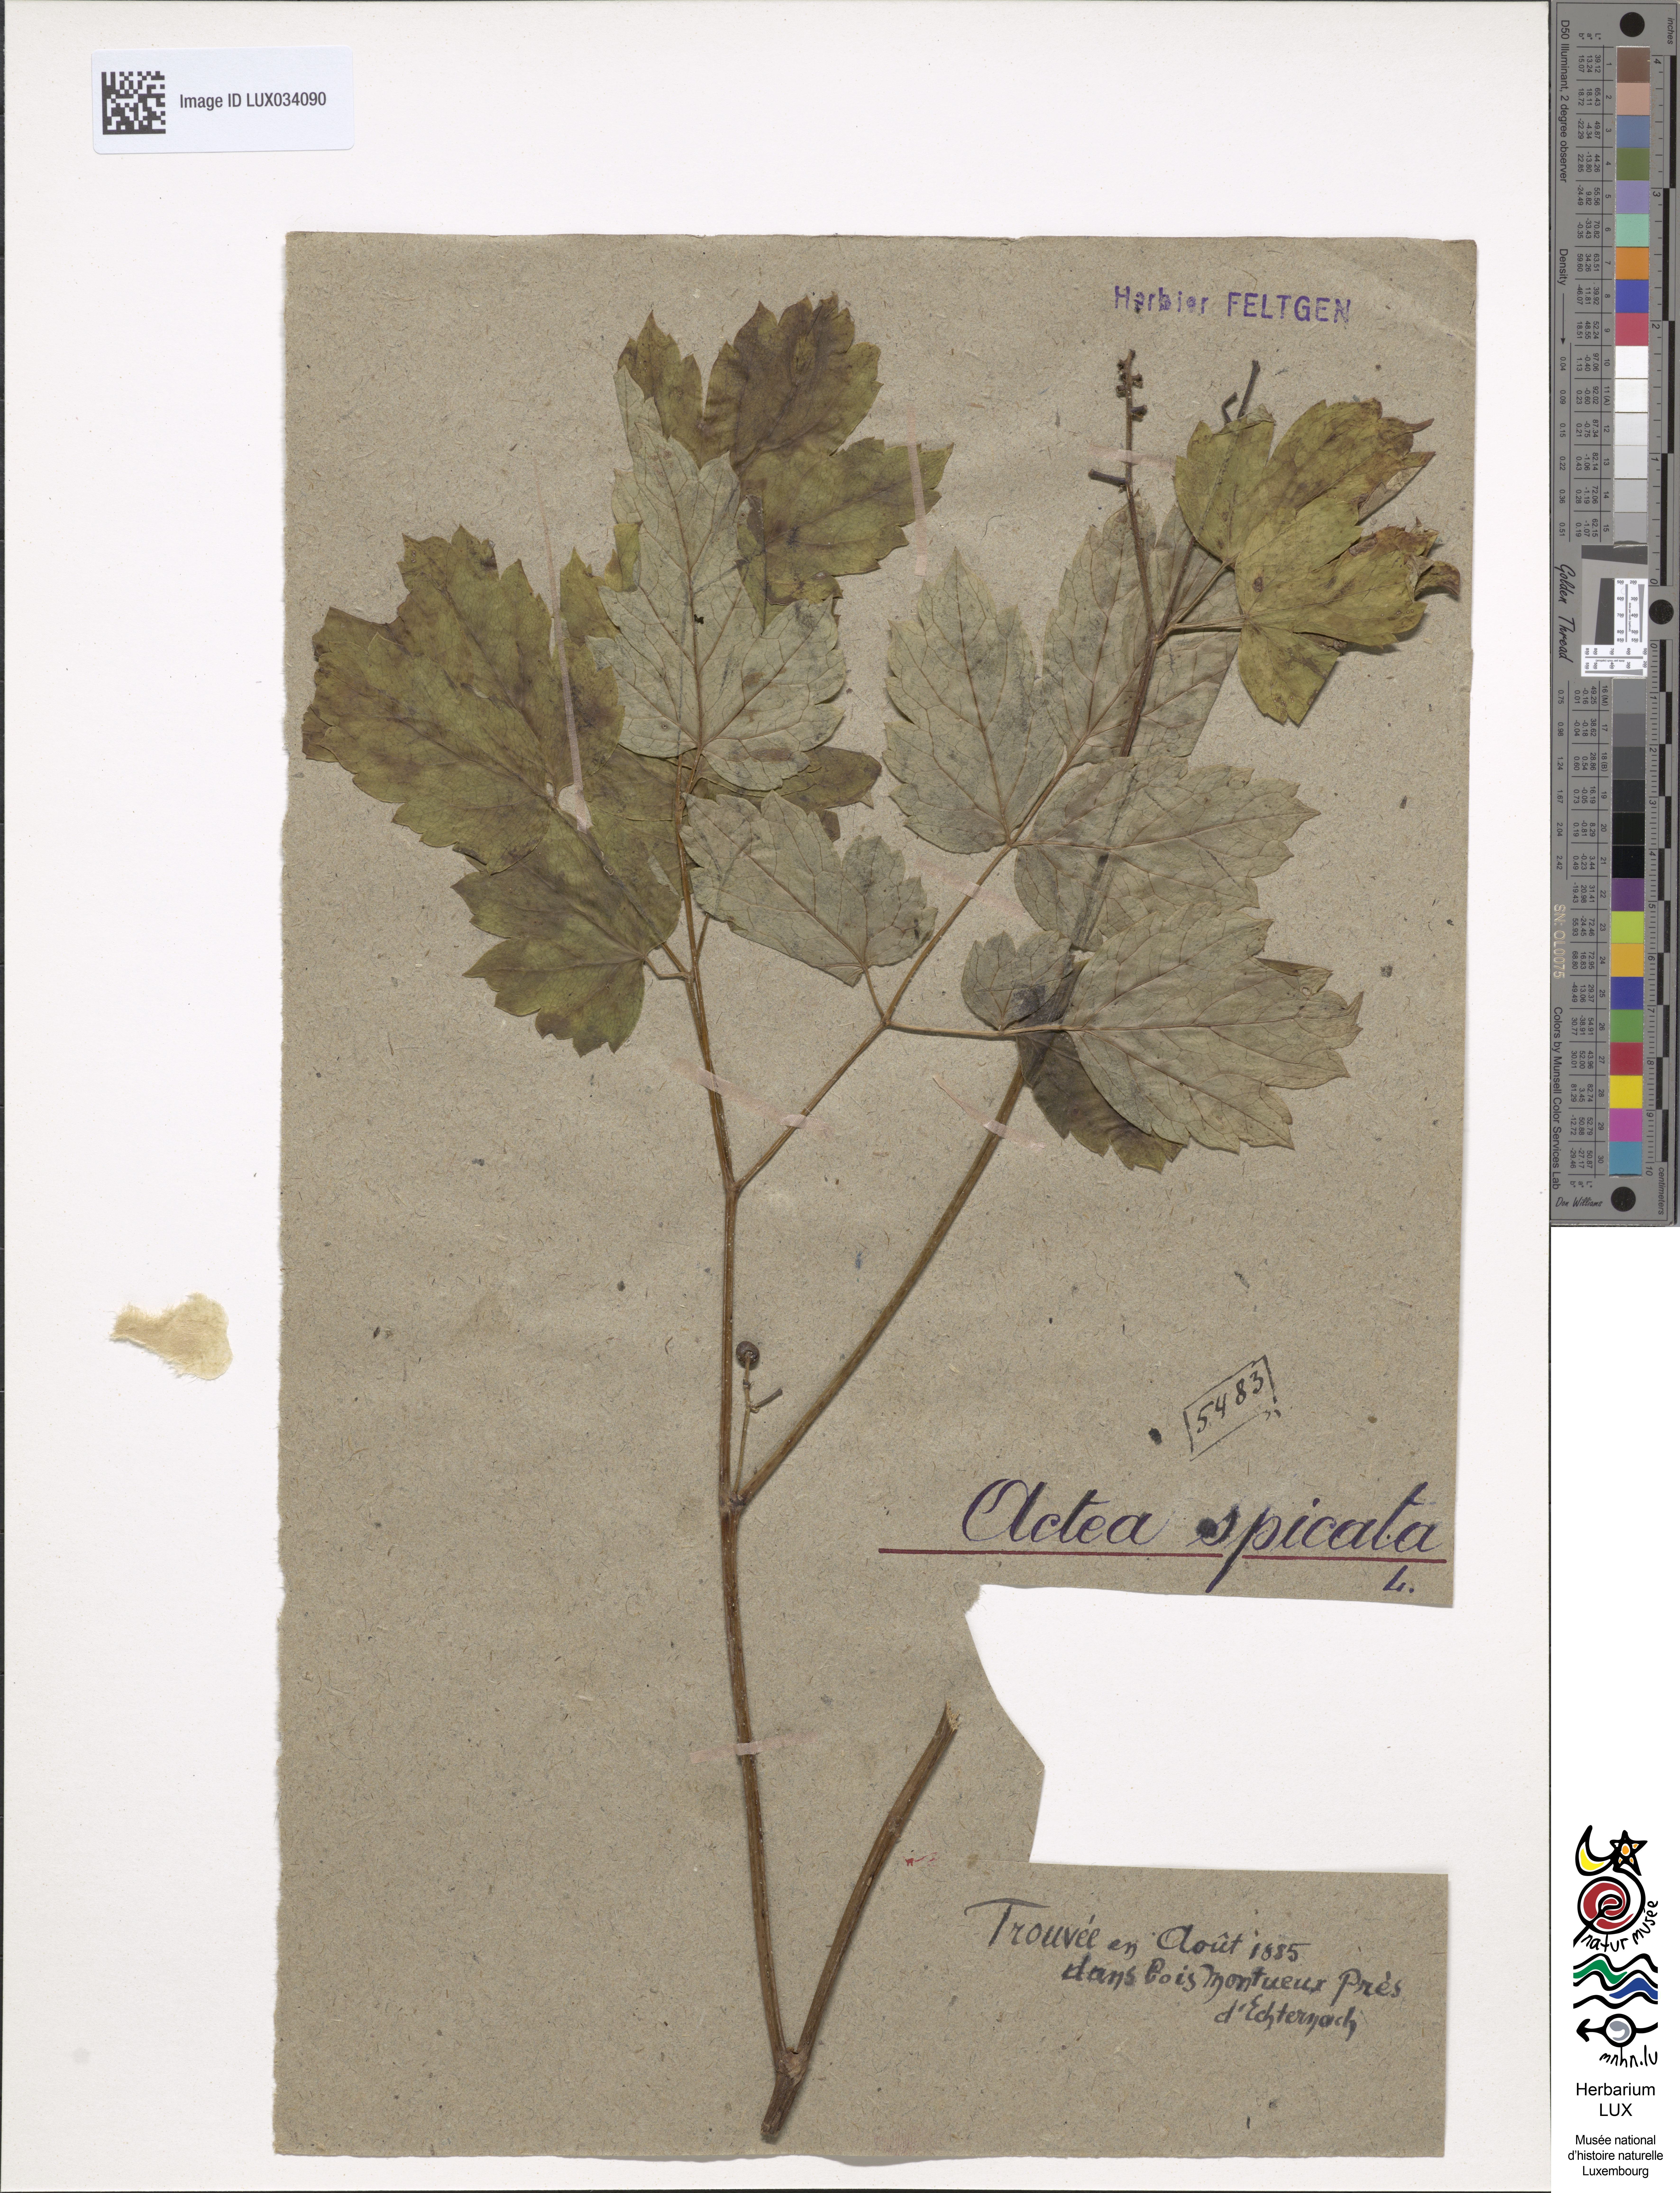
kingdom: Plantae
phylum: Tracheophyta
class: Magnoliopsida
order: Ranunculales
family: Ranunculaceae
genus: Actaea
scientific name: Actaea spicata
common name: Baneberry
